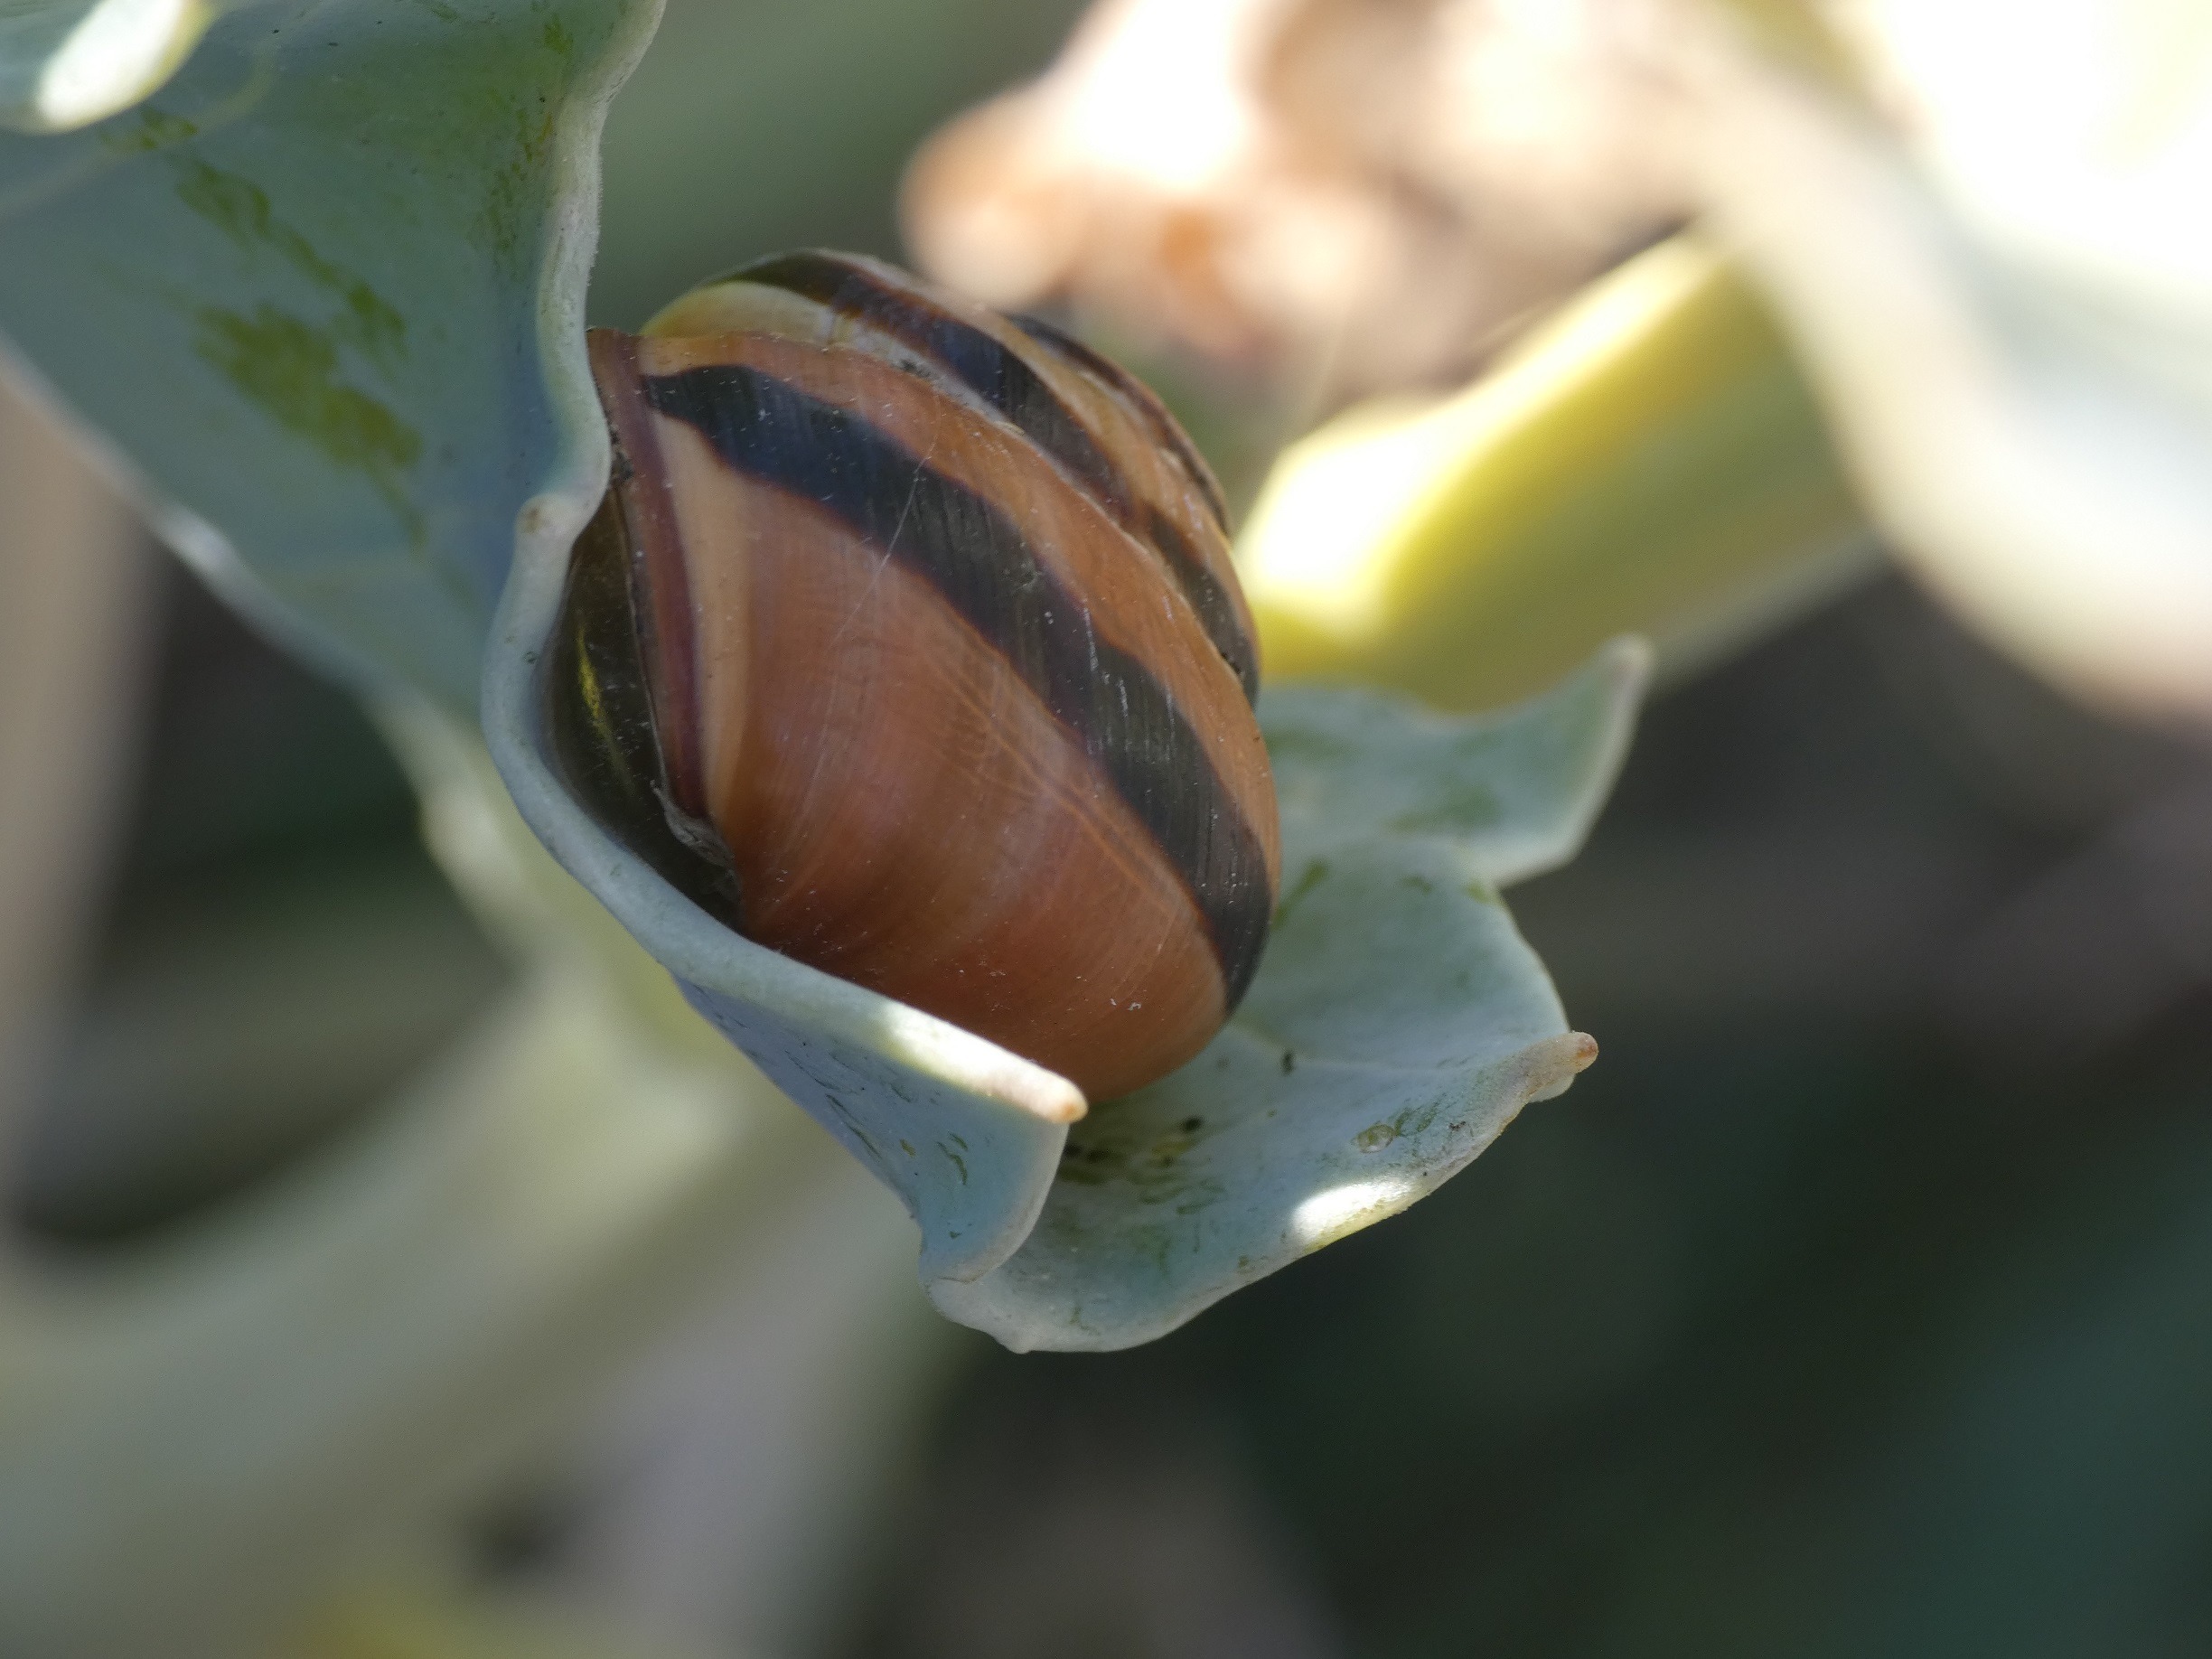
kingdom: Animalia
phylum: Mollusca
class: Gastropoda
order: Stylommatophora
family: Helicidae
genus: Cepaea
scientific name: Cepaea nemoralis
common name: Lundsnegl
